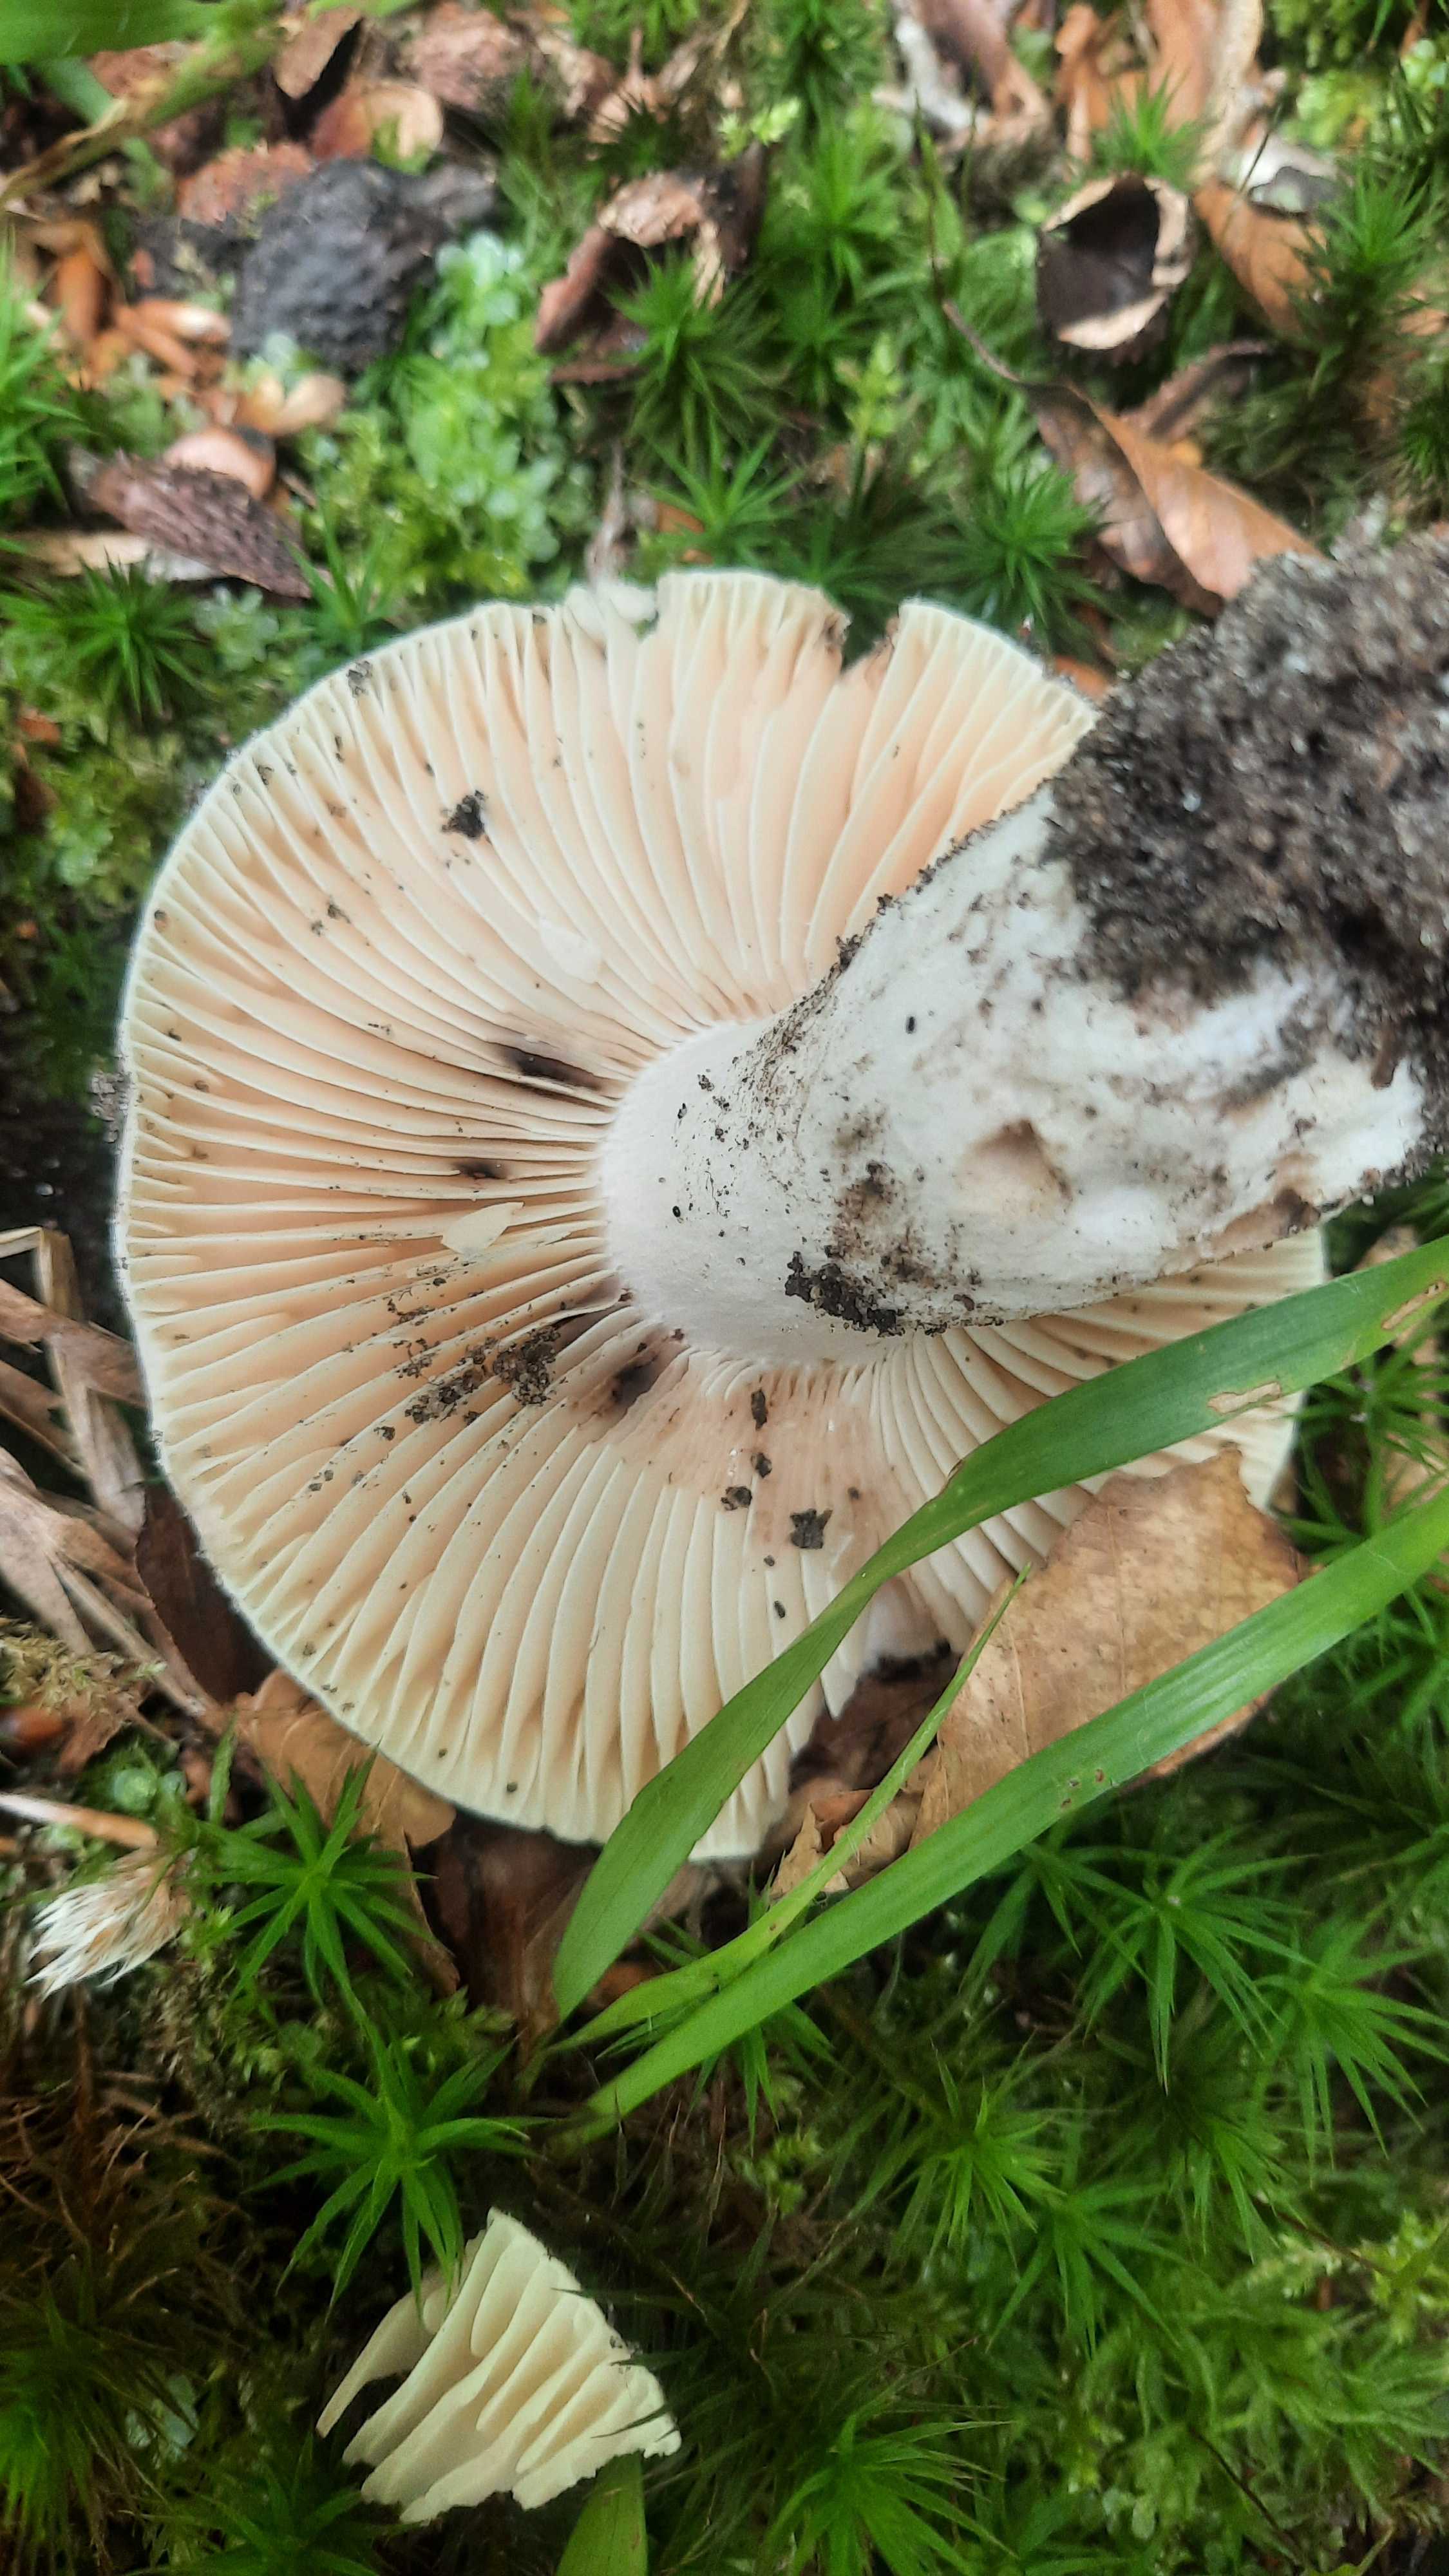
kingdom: Fungi
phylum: Basidiomycota
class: Agaricomycetes
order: Russulales
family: Russulaceae
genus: Russula
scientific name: Russula adusta
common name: sværtende skørhat
